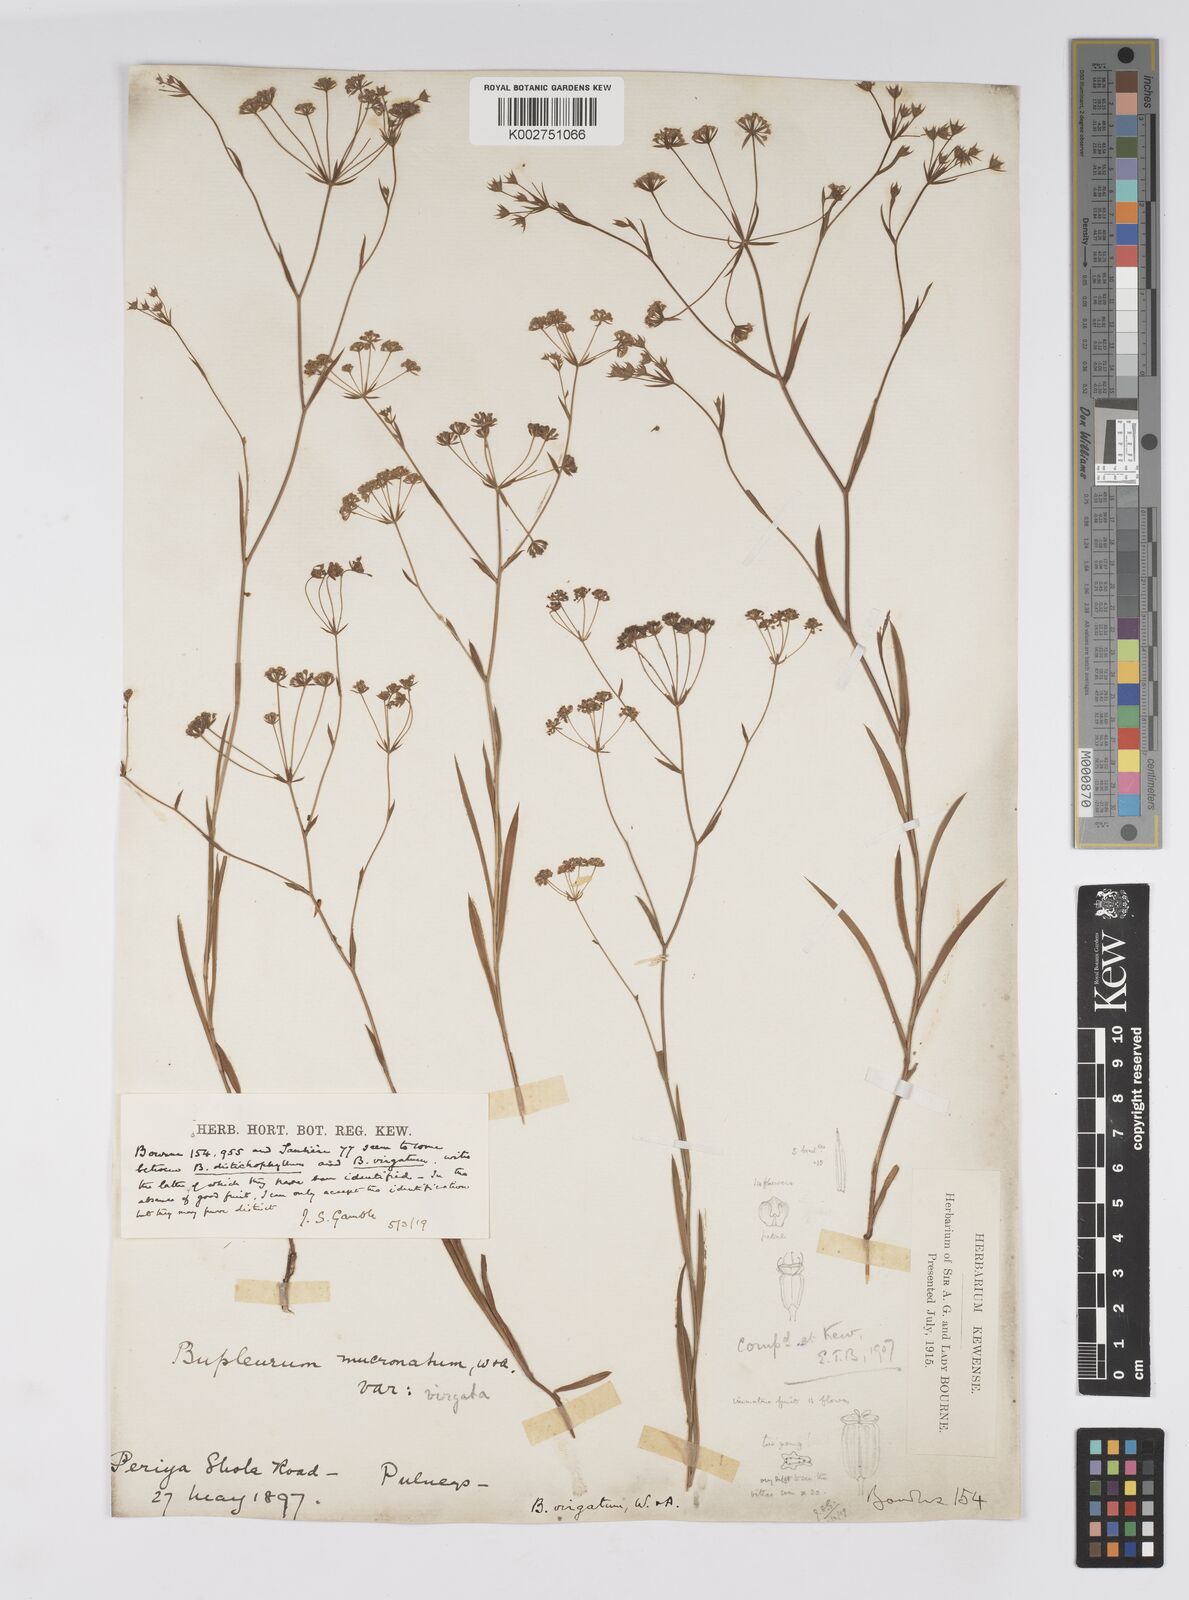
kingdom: Plantae
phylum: Tracheophyta
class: Magnoliopsida
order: Apiales
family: Apiaceae
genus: Bupleurum
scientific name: Bupleurum
